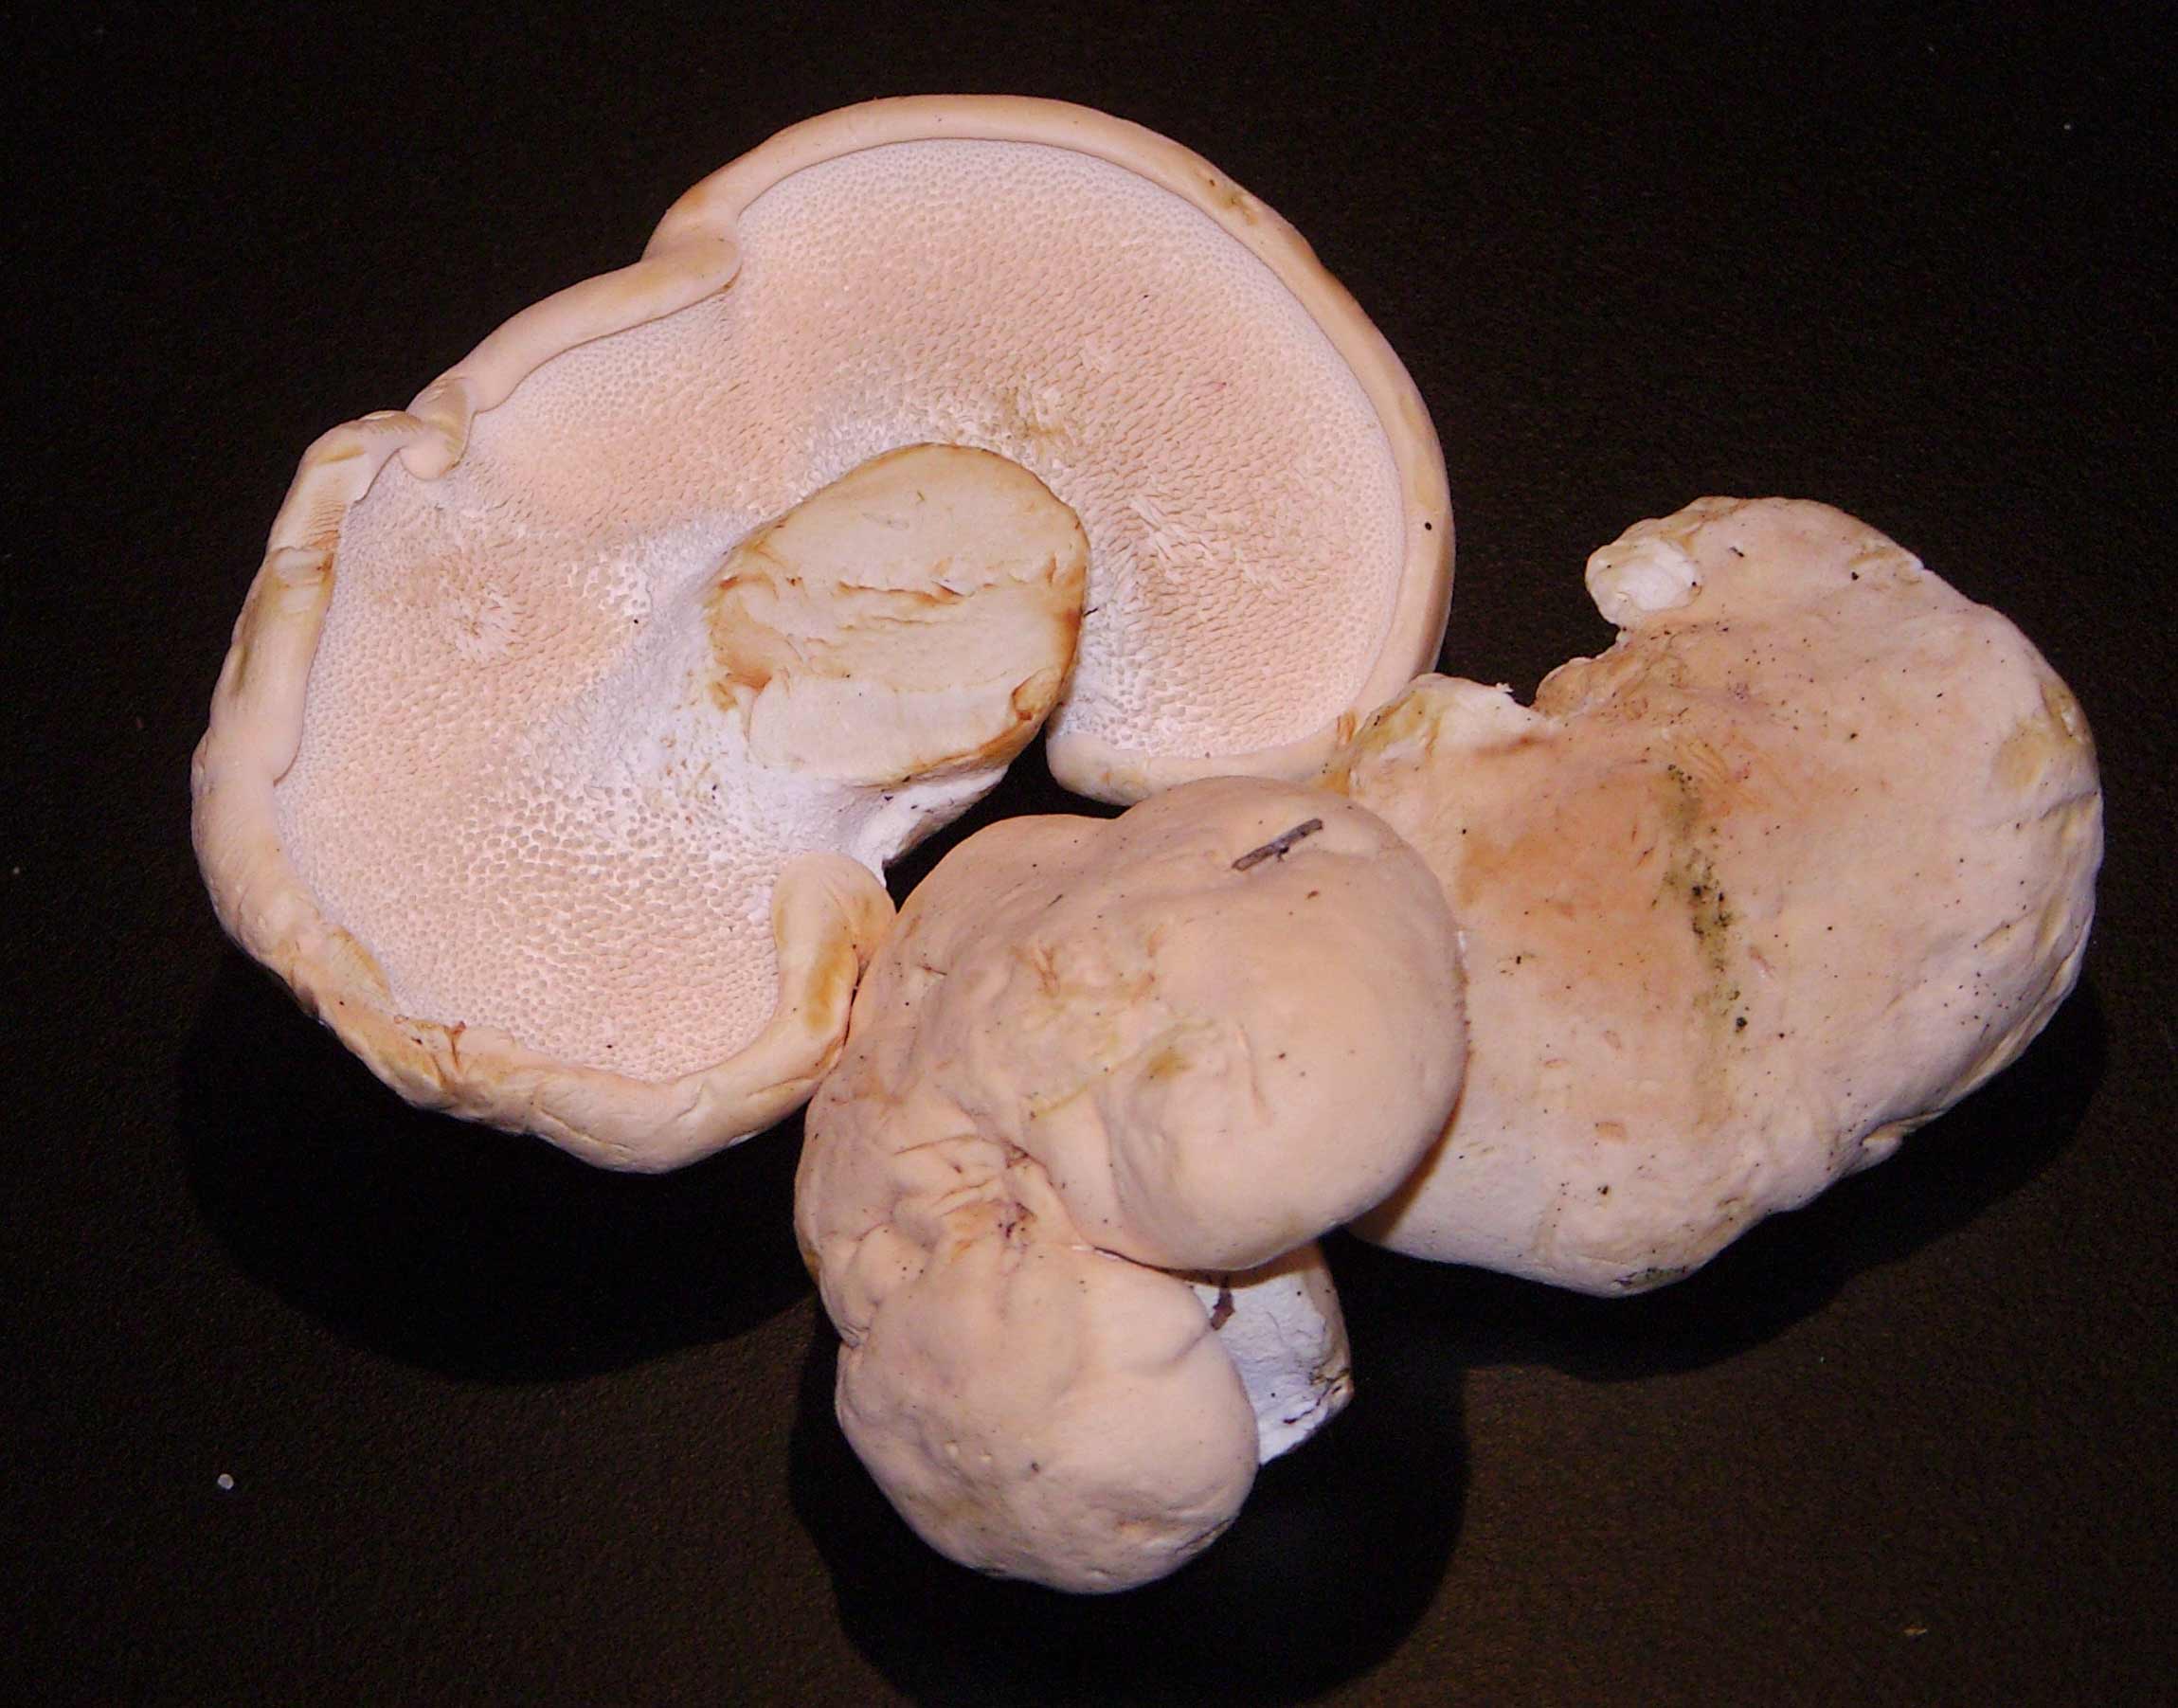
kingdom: Fungi
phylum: Basidiomycota
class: Agaricomycetes
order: Cantharellales
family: Hydnaceae
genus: Hydnum
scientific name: Hydnum repandum
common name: almindelig pigsvamp
